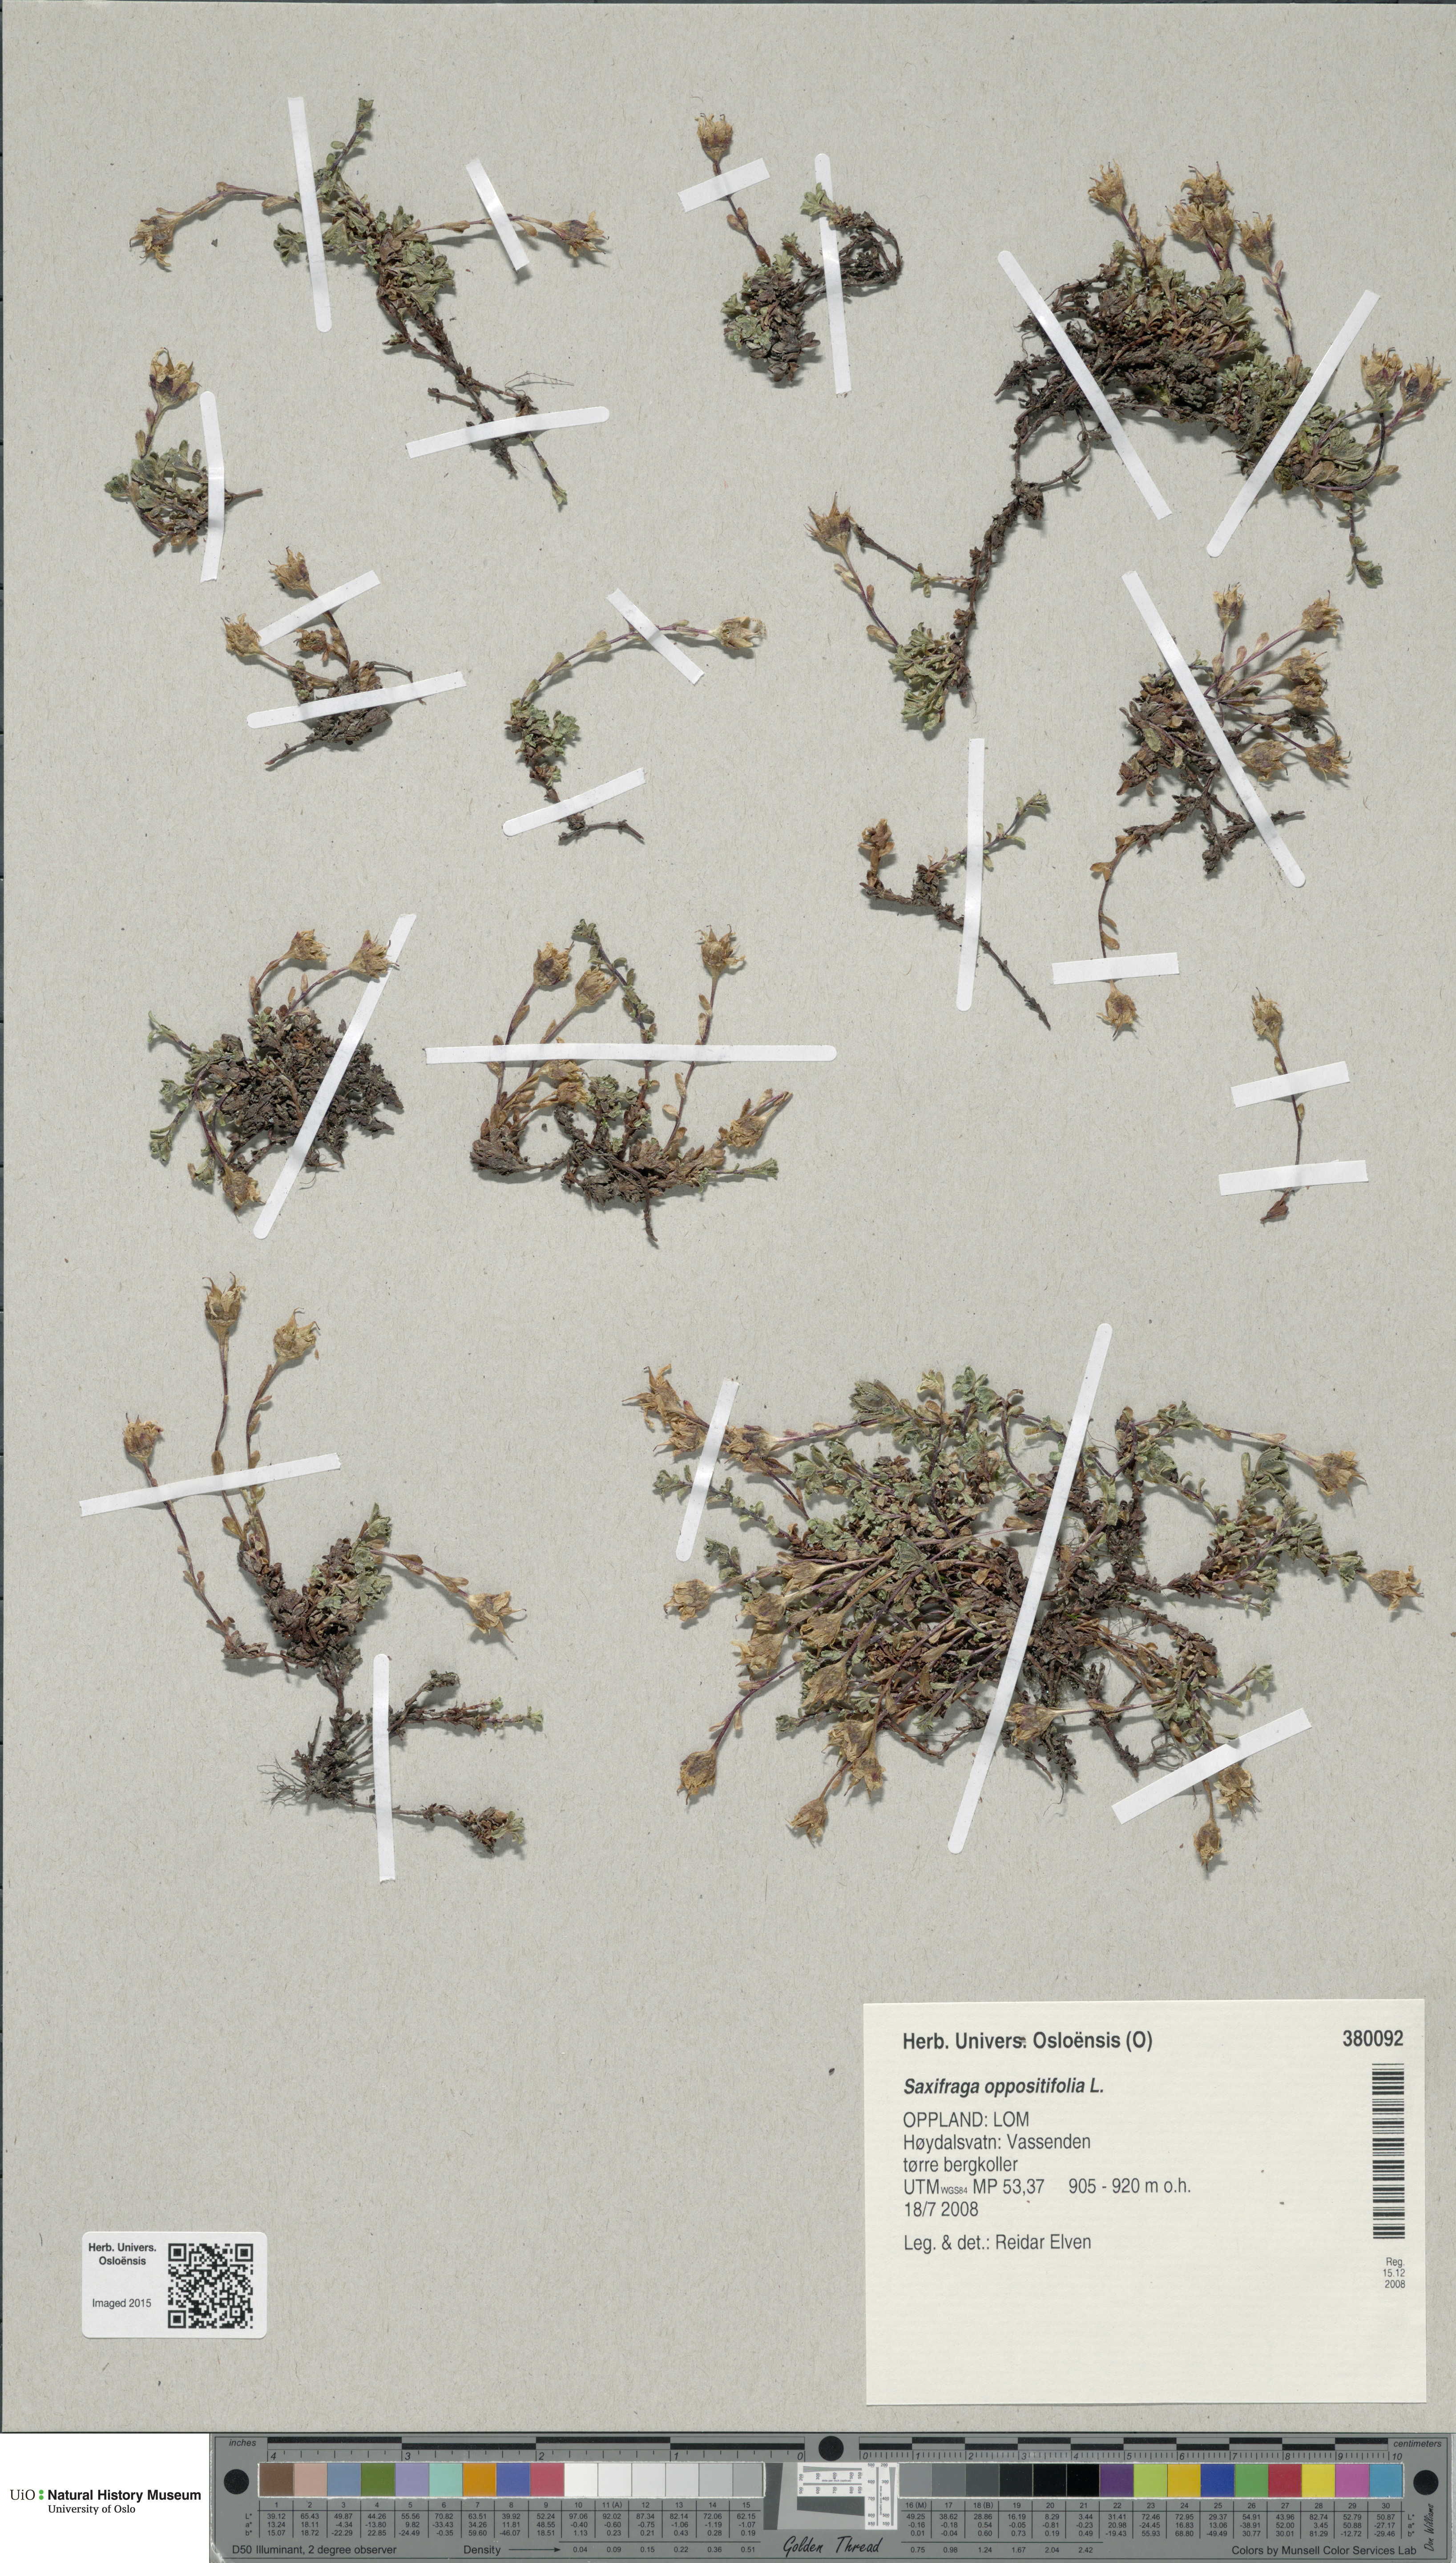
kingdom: Plantae
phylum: Tracheophyta
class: Magnoliopsida
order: Saxifragales
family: Saxifragaceae
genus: Saxifraga
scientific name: Saxifraga oppositifolia
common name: Purple saxifrage
